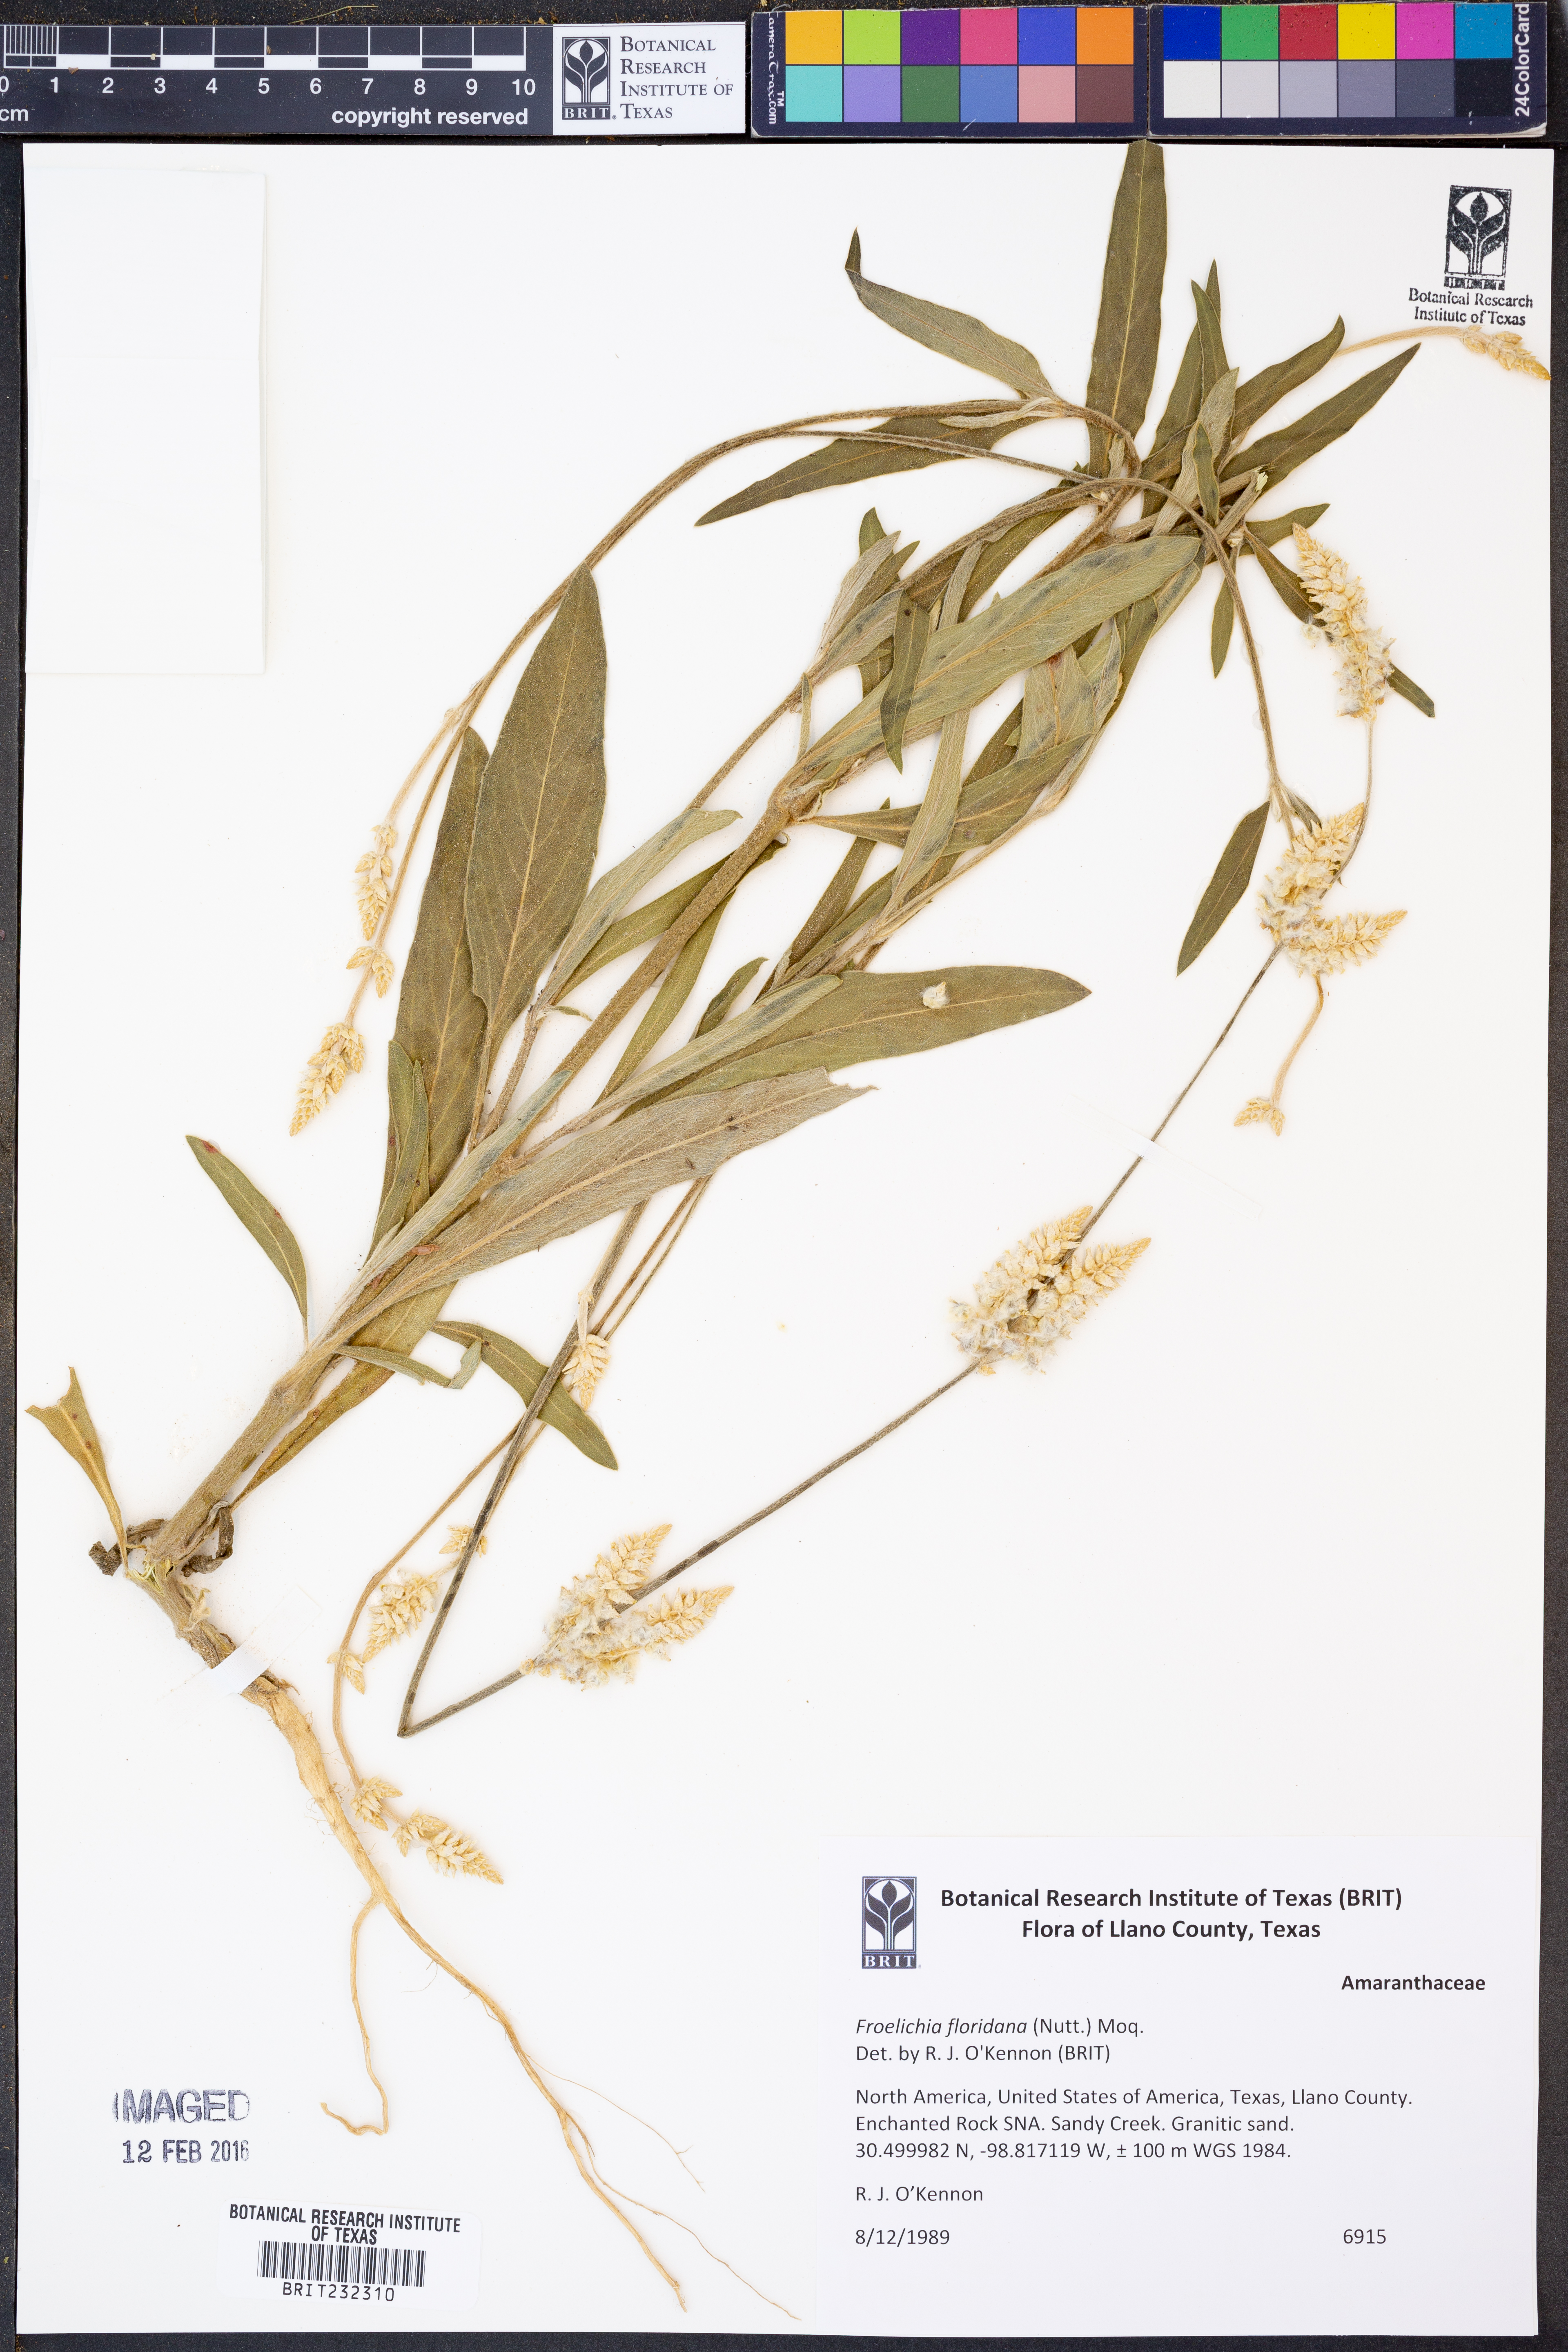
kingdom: Plantae
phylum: Tracheophyta
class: Magnoliopsida
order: Caryophyllales
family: Amaranthaceae
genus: Froelichia
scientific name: Froelichia floridana
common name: Florida snake-cotton
